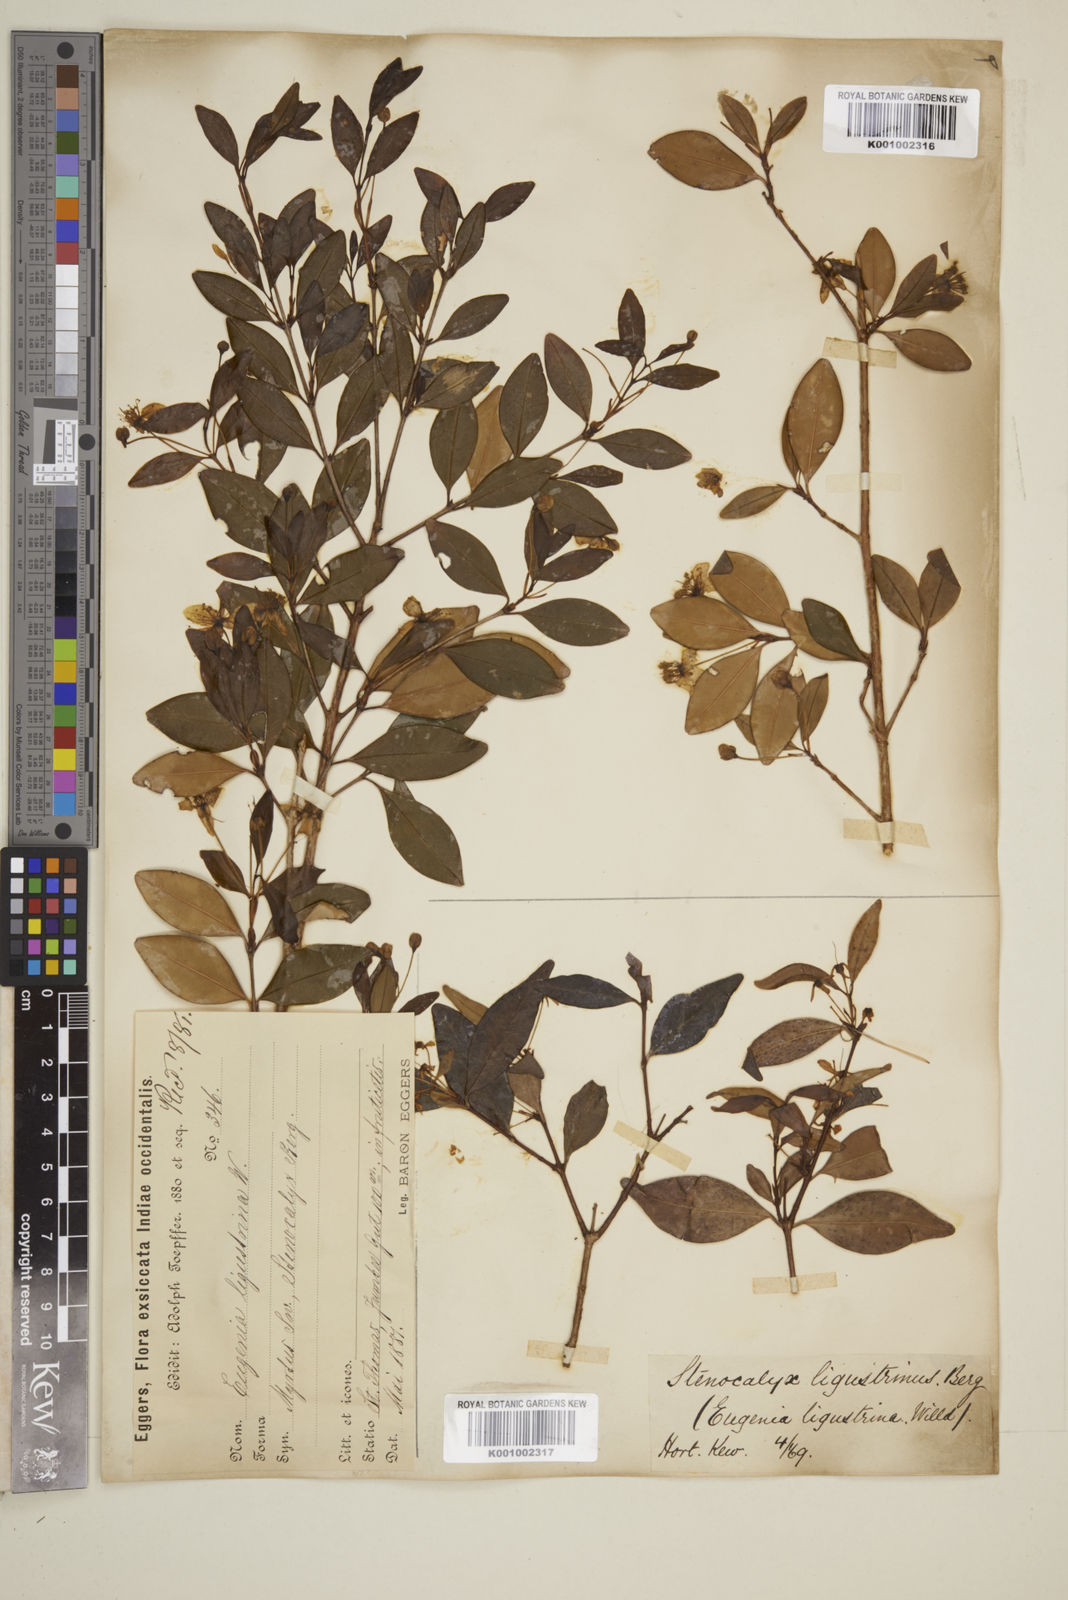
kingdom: Plantae
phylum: Tracheophyta
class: Magnoliopsida
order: Myrtales
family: Myrtaceae
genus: Eugenia
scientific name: Eugenia ligustrina
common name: Privet stopper
